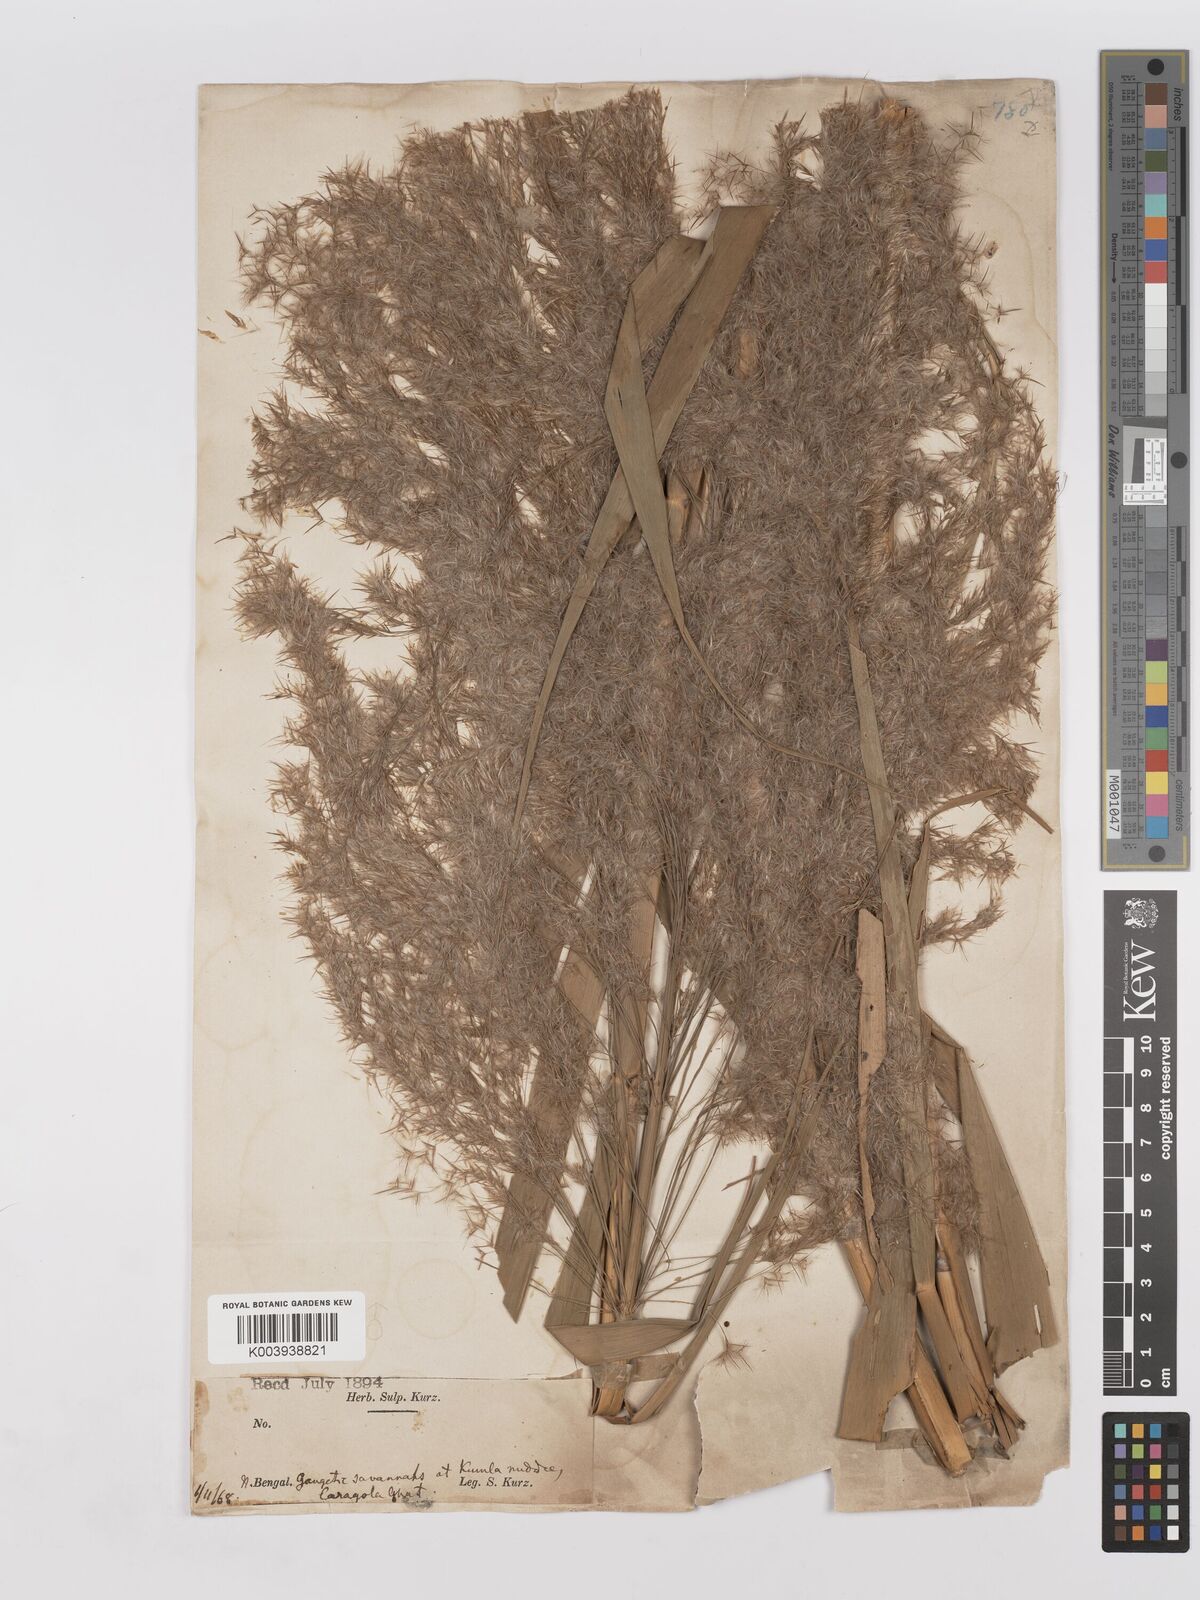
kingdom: Plantae
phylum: Tracheophyta
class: Liliopsida
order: Poales
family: Poaceae
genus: Phragmites
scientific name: Phragmites karka
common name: Tropical reed
